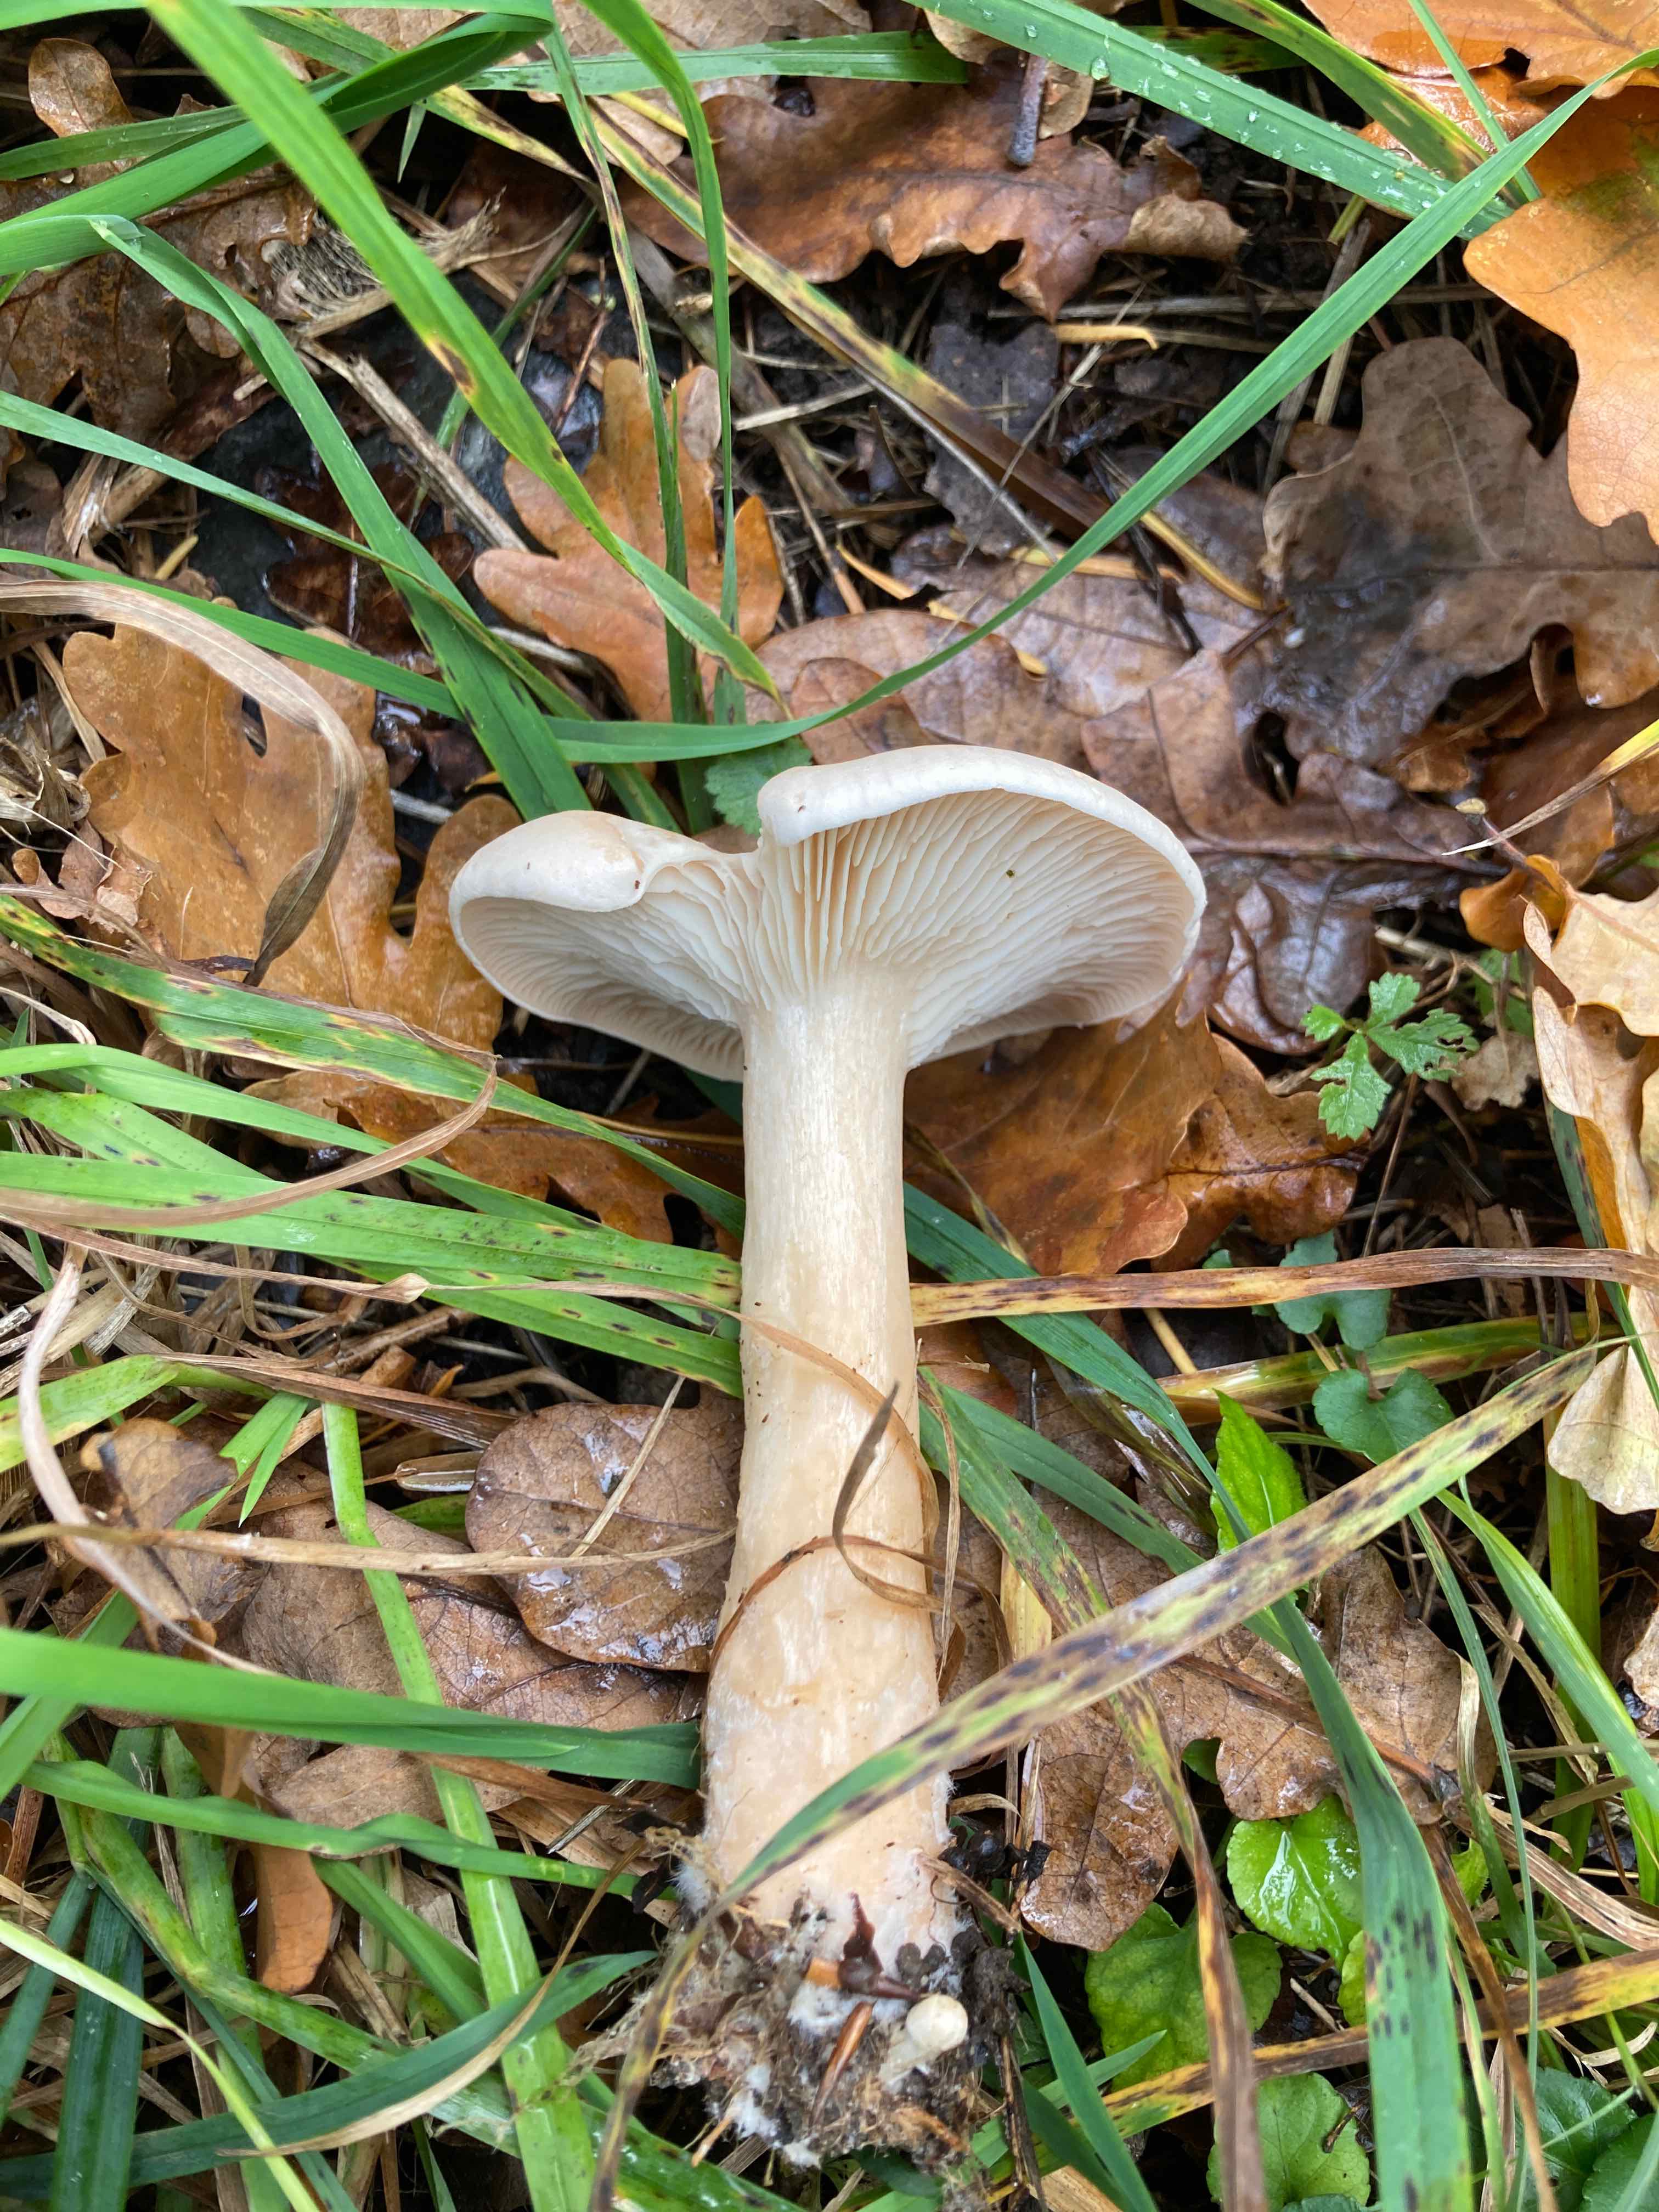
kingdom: Fungi
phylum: Basidiomycota
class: Agaricomycetes
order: Agaricales
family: Tricholomataceae
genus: Infundibulicybe
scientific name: Infundibulicybe geotropa
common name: stor tragthat
